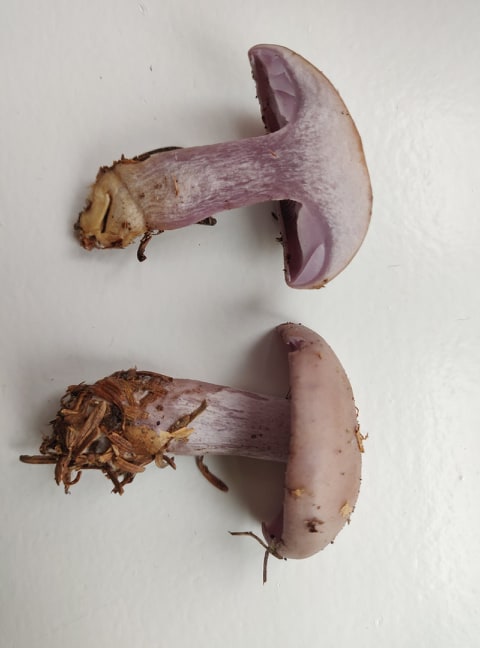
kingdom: Fungi
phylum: Basidiomycota
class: Agaricomycetes
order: Agaricales
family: Tricholomataceae
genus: Lepista
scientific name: Lepista nuda
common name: violet hekseringshat
